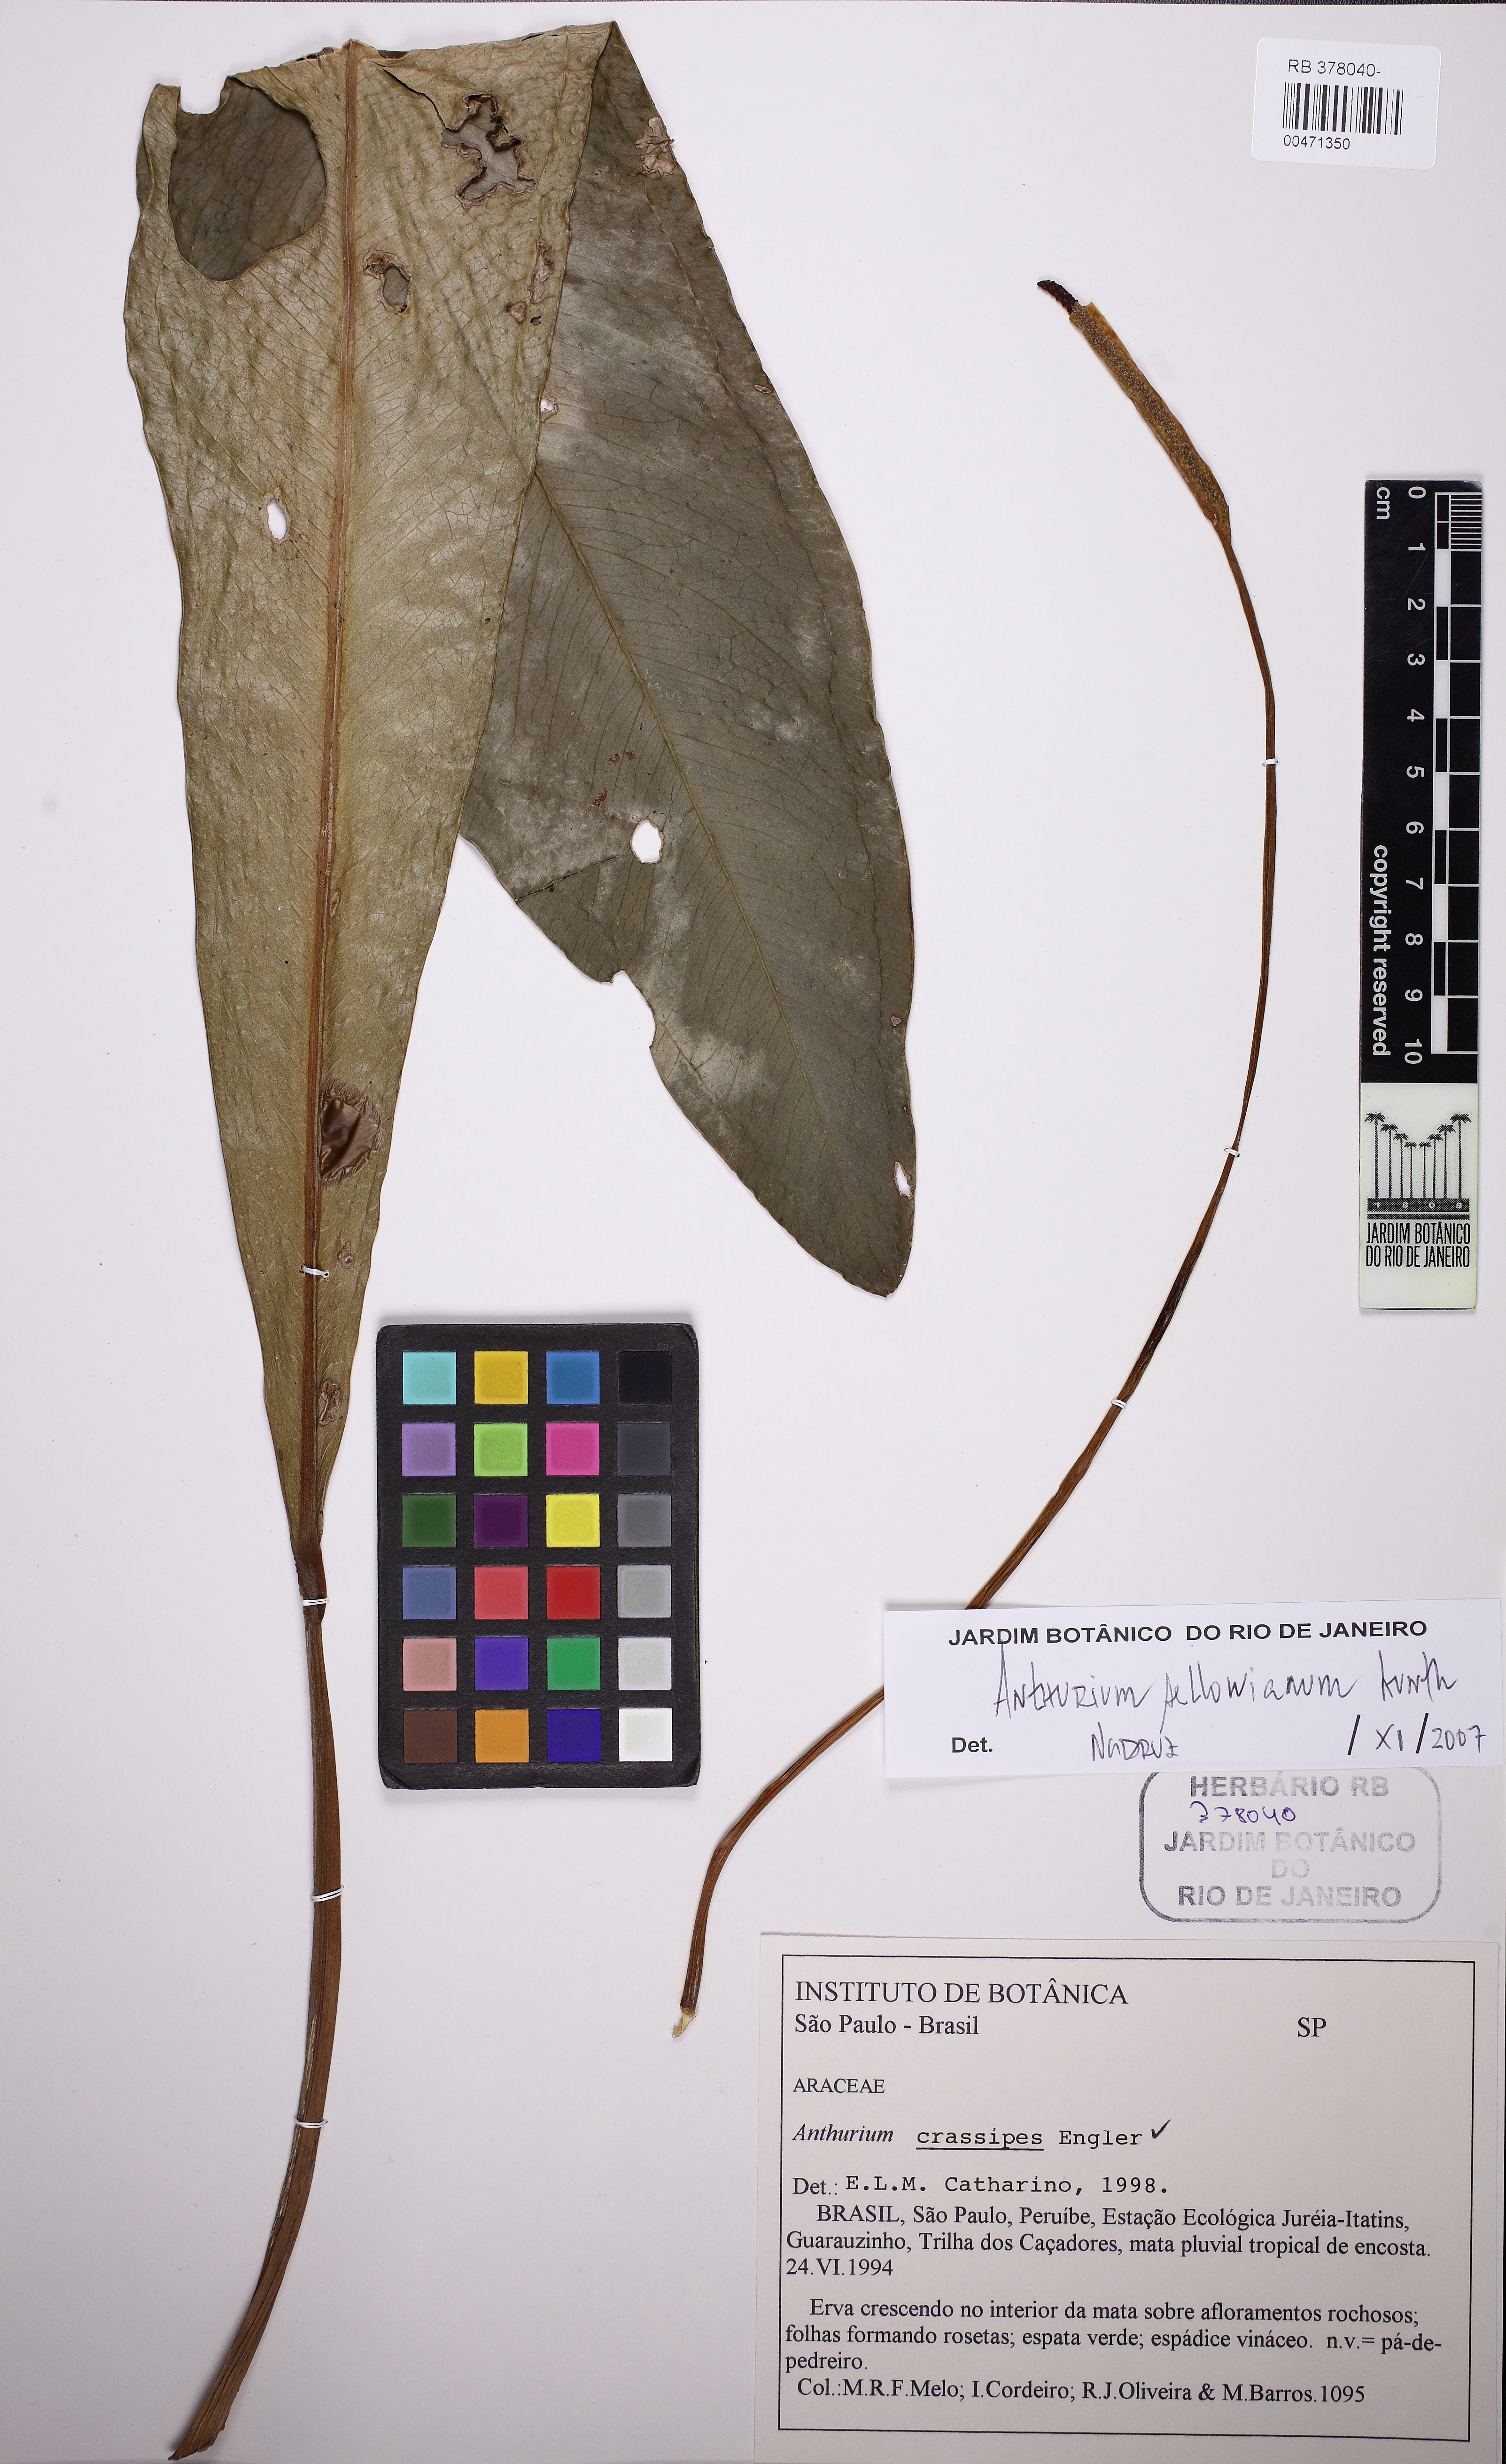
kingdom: Plantae
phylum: Tracheophyta
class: Liliopsida
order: Alismatales
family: Araceae
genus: Anthurium
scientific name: Anthurium sellowianum
